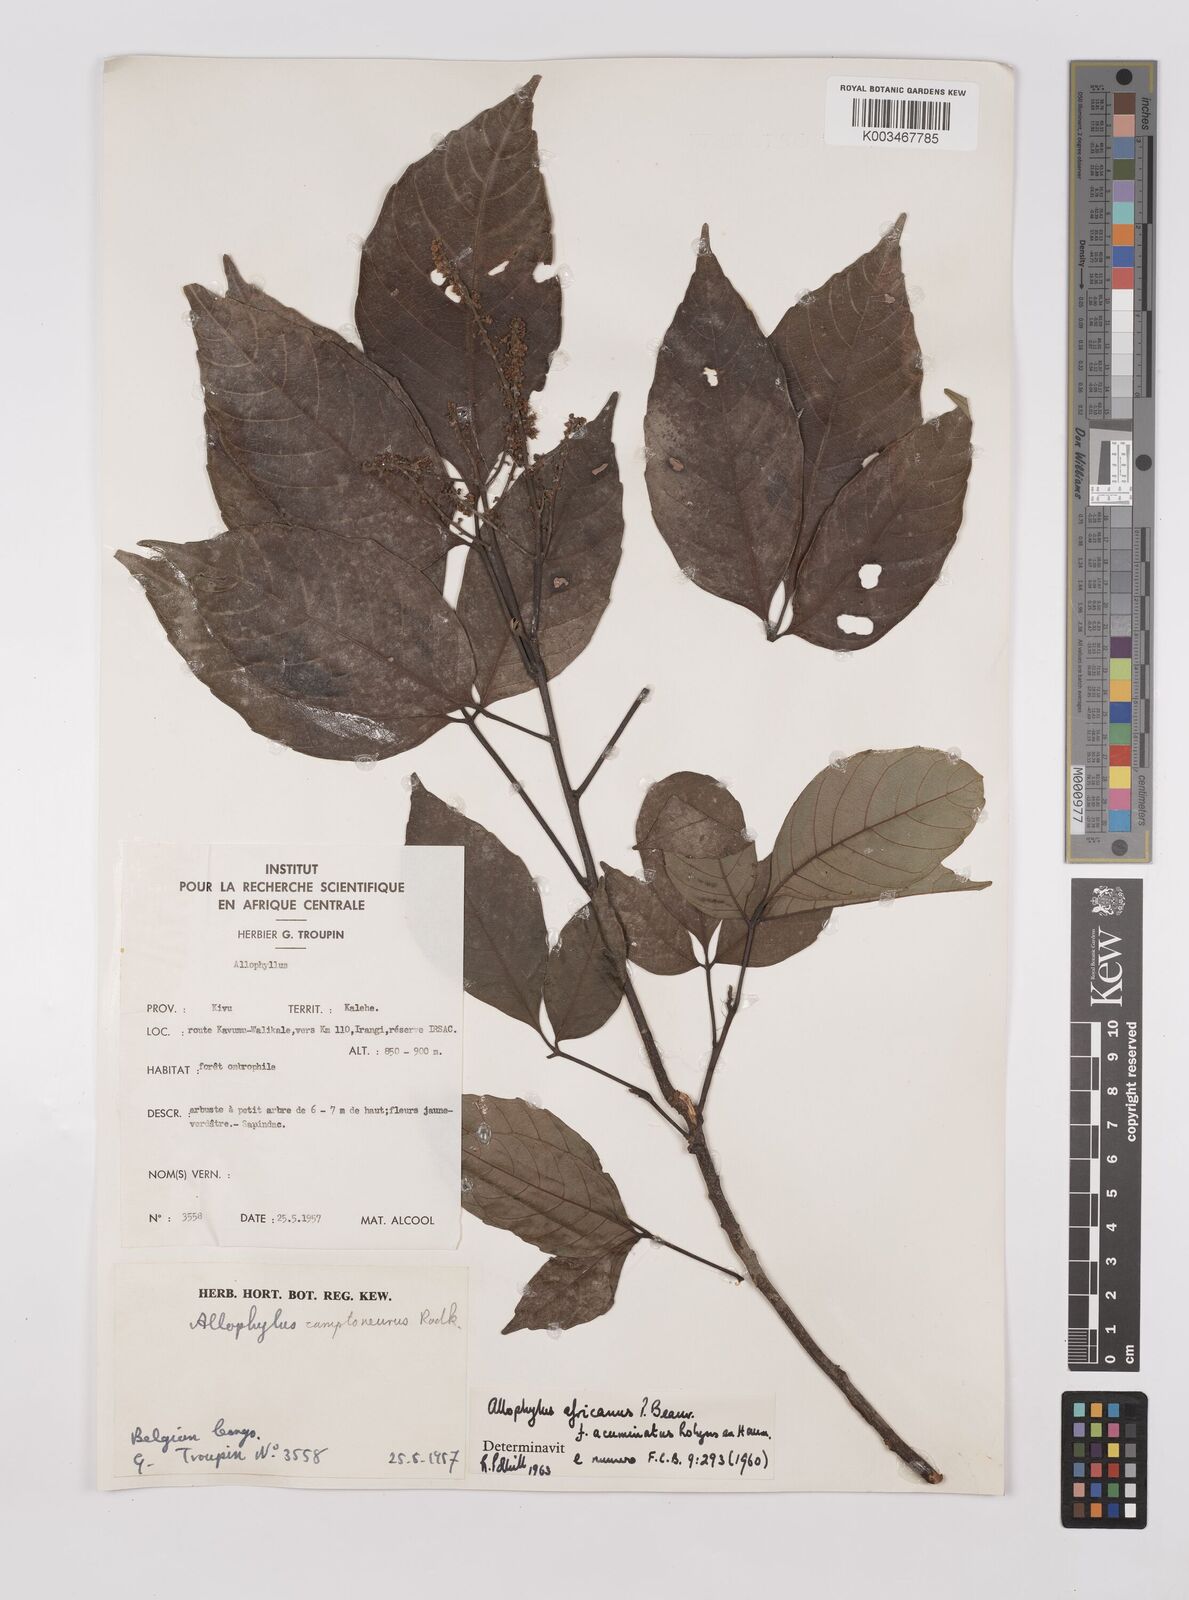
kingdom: Plantae
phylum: Tracheophyta
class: Magnoliopsida
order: Sapindales
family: Sapindaceae
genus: Allophylus
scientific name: Allophylus africanus
